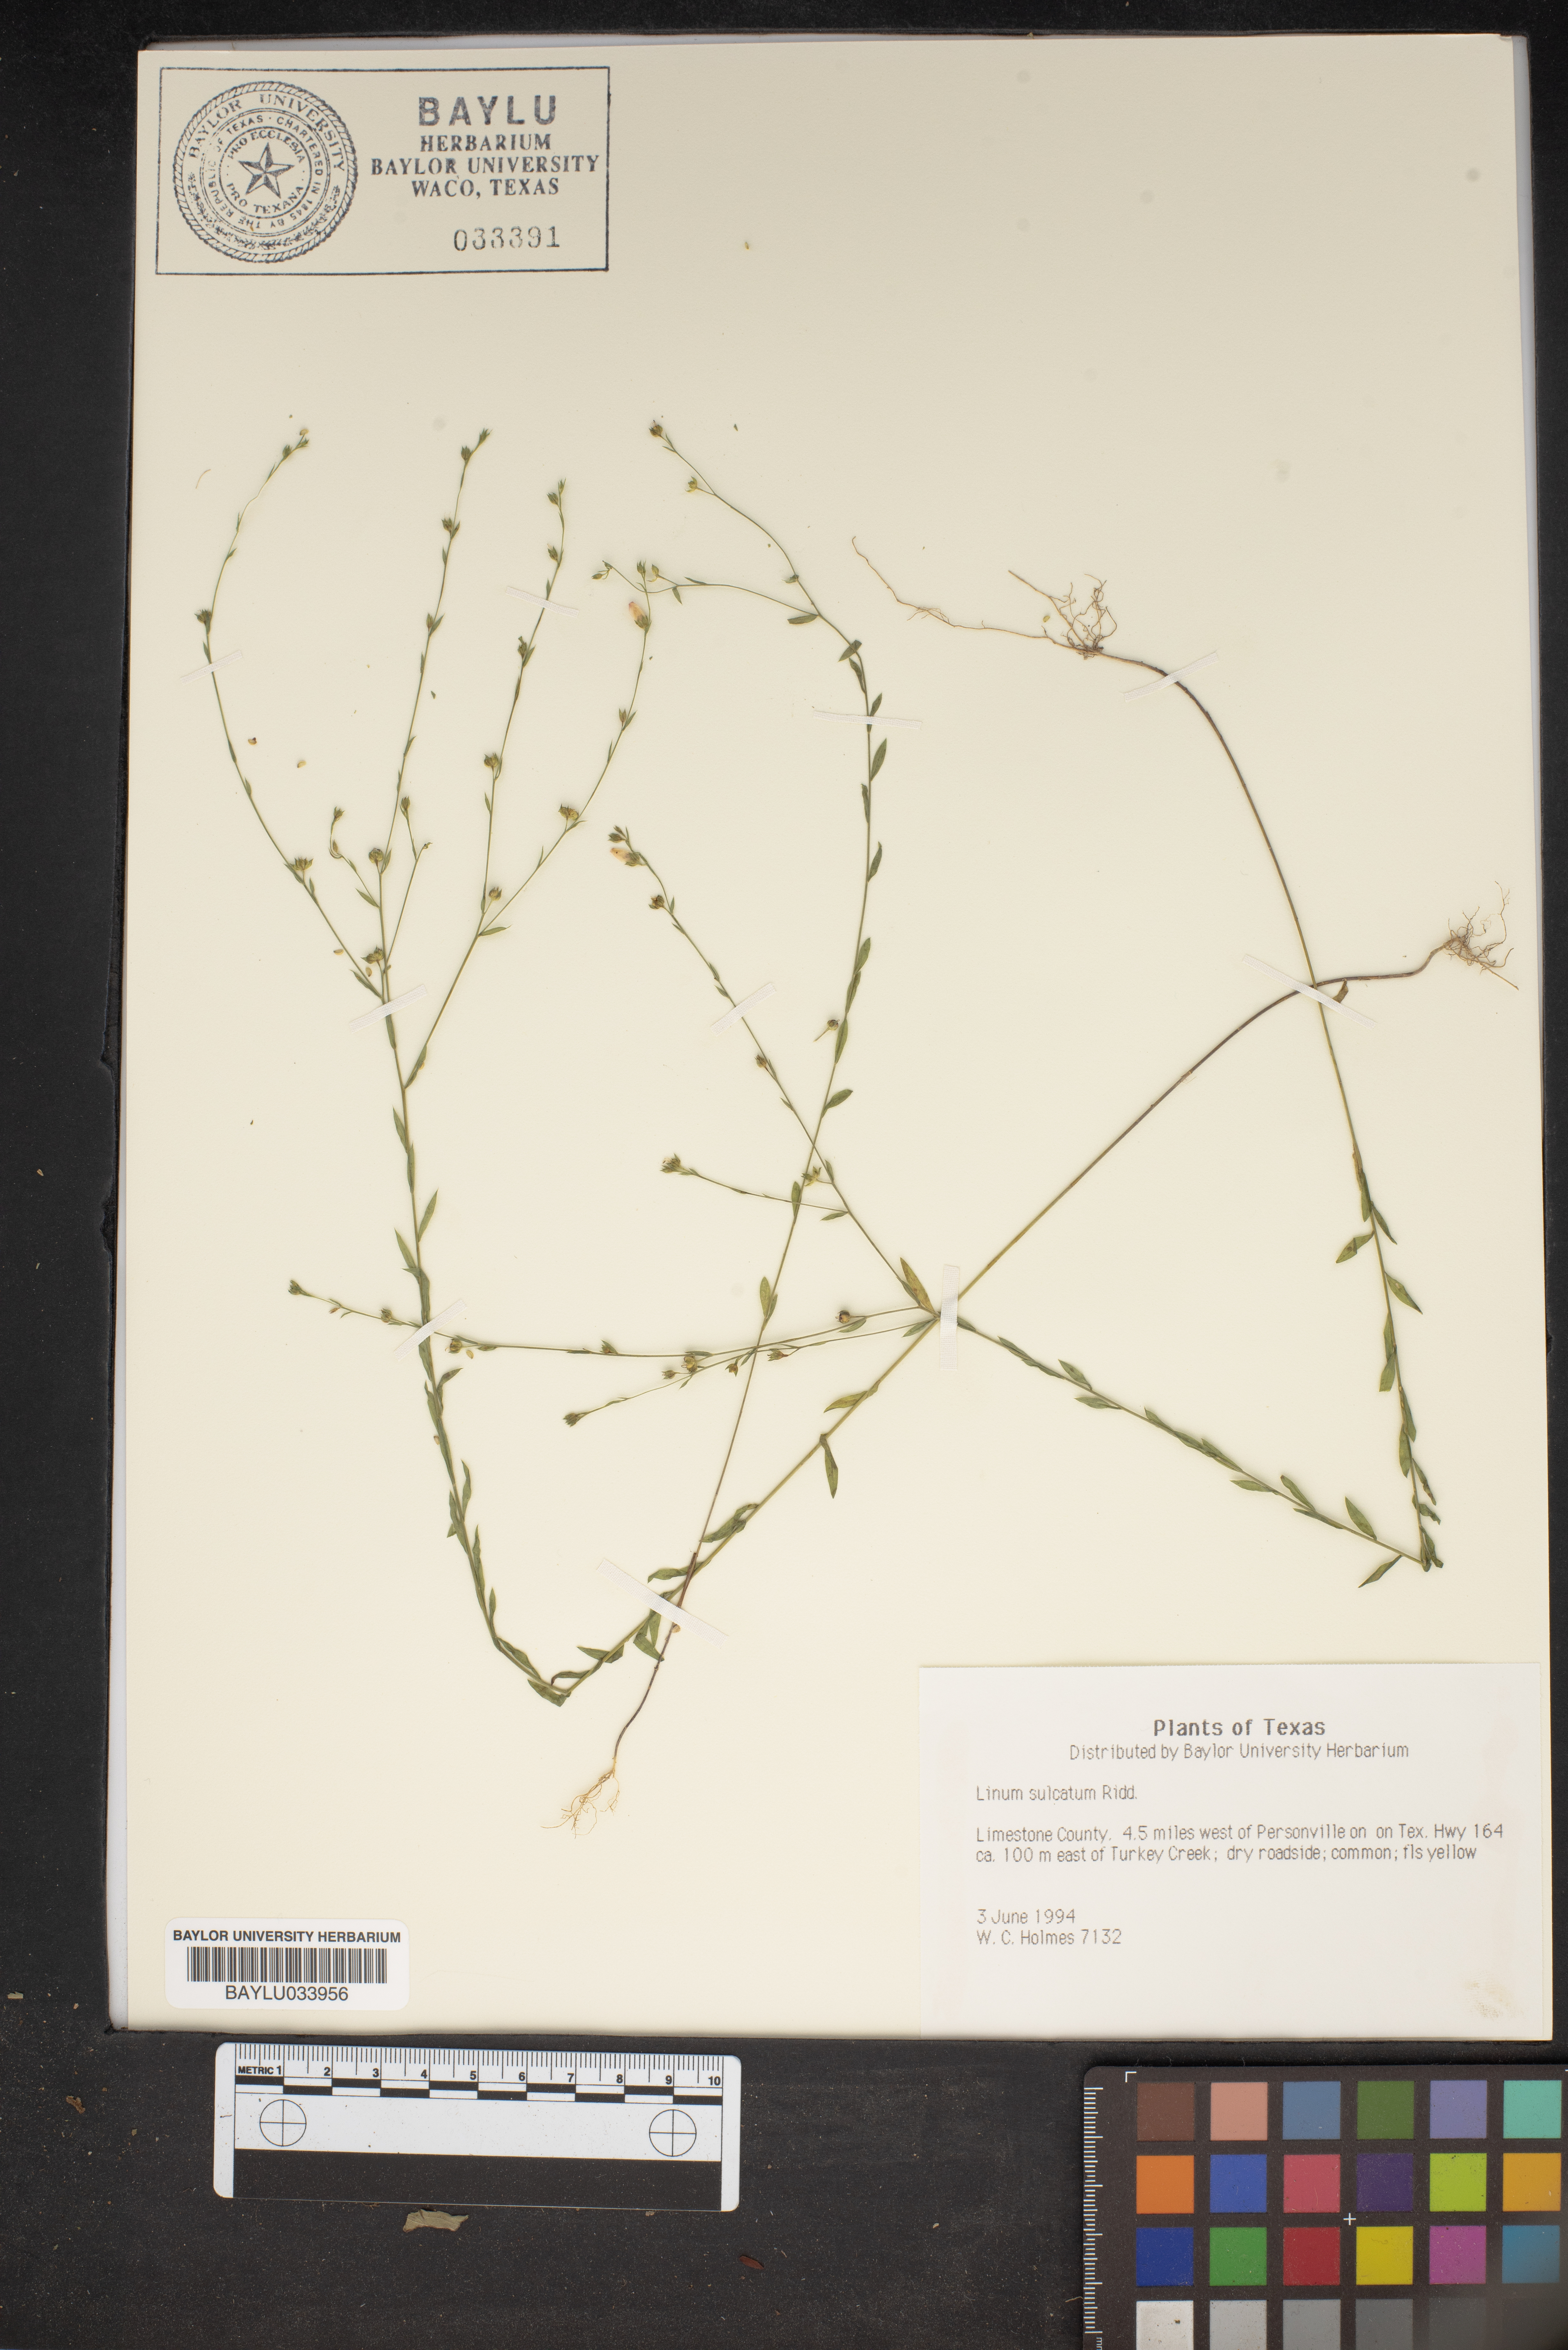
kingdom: Plantae
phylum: Tracheophyta
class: Magnoliopsida
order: Malpighiales
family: Linaceae
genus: Linum
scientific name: Linum sulcatum
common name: Grooved flax
